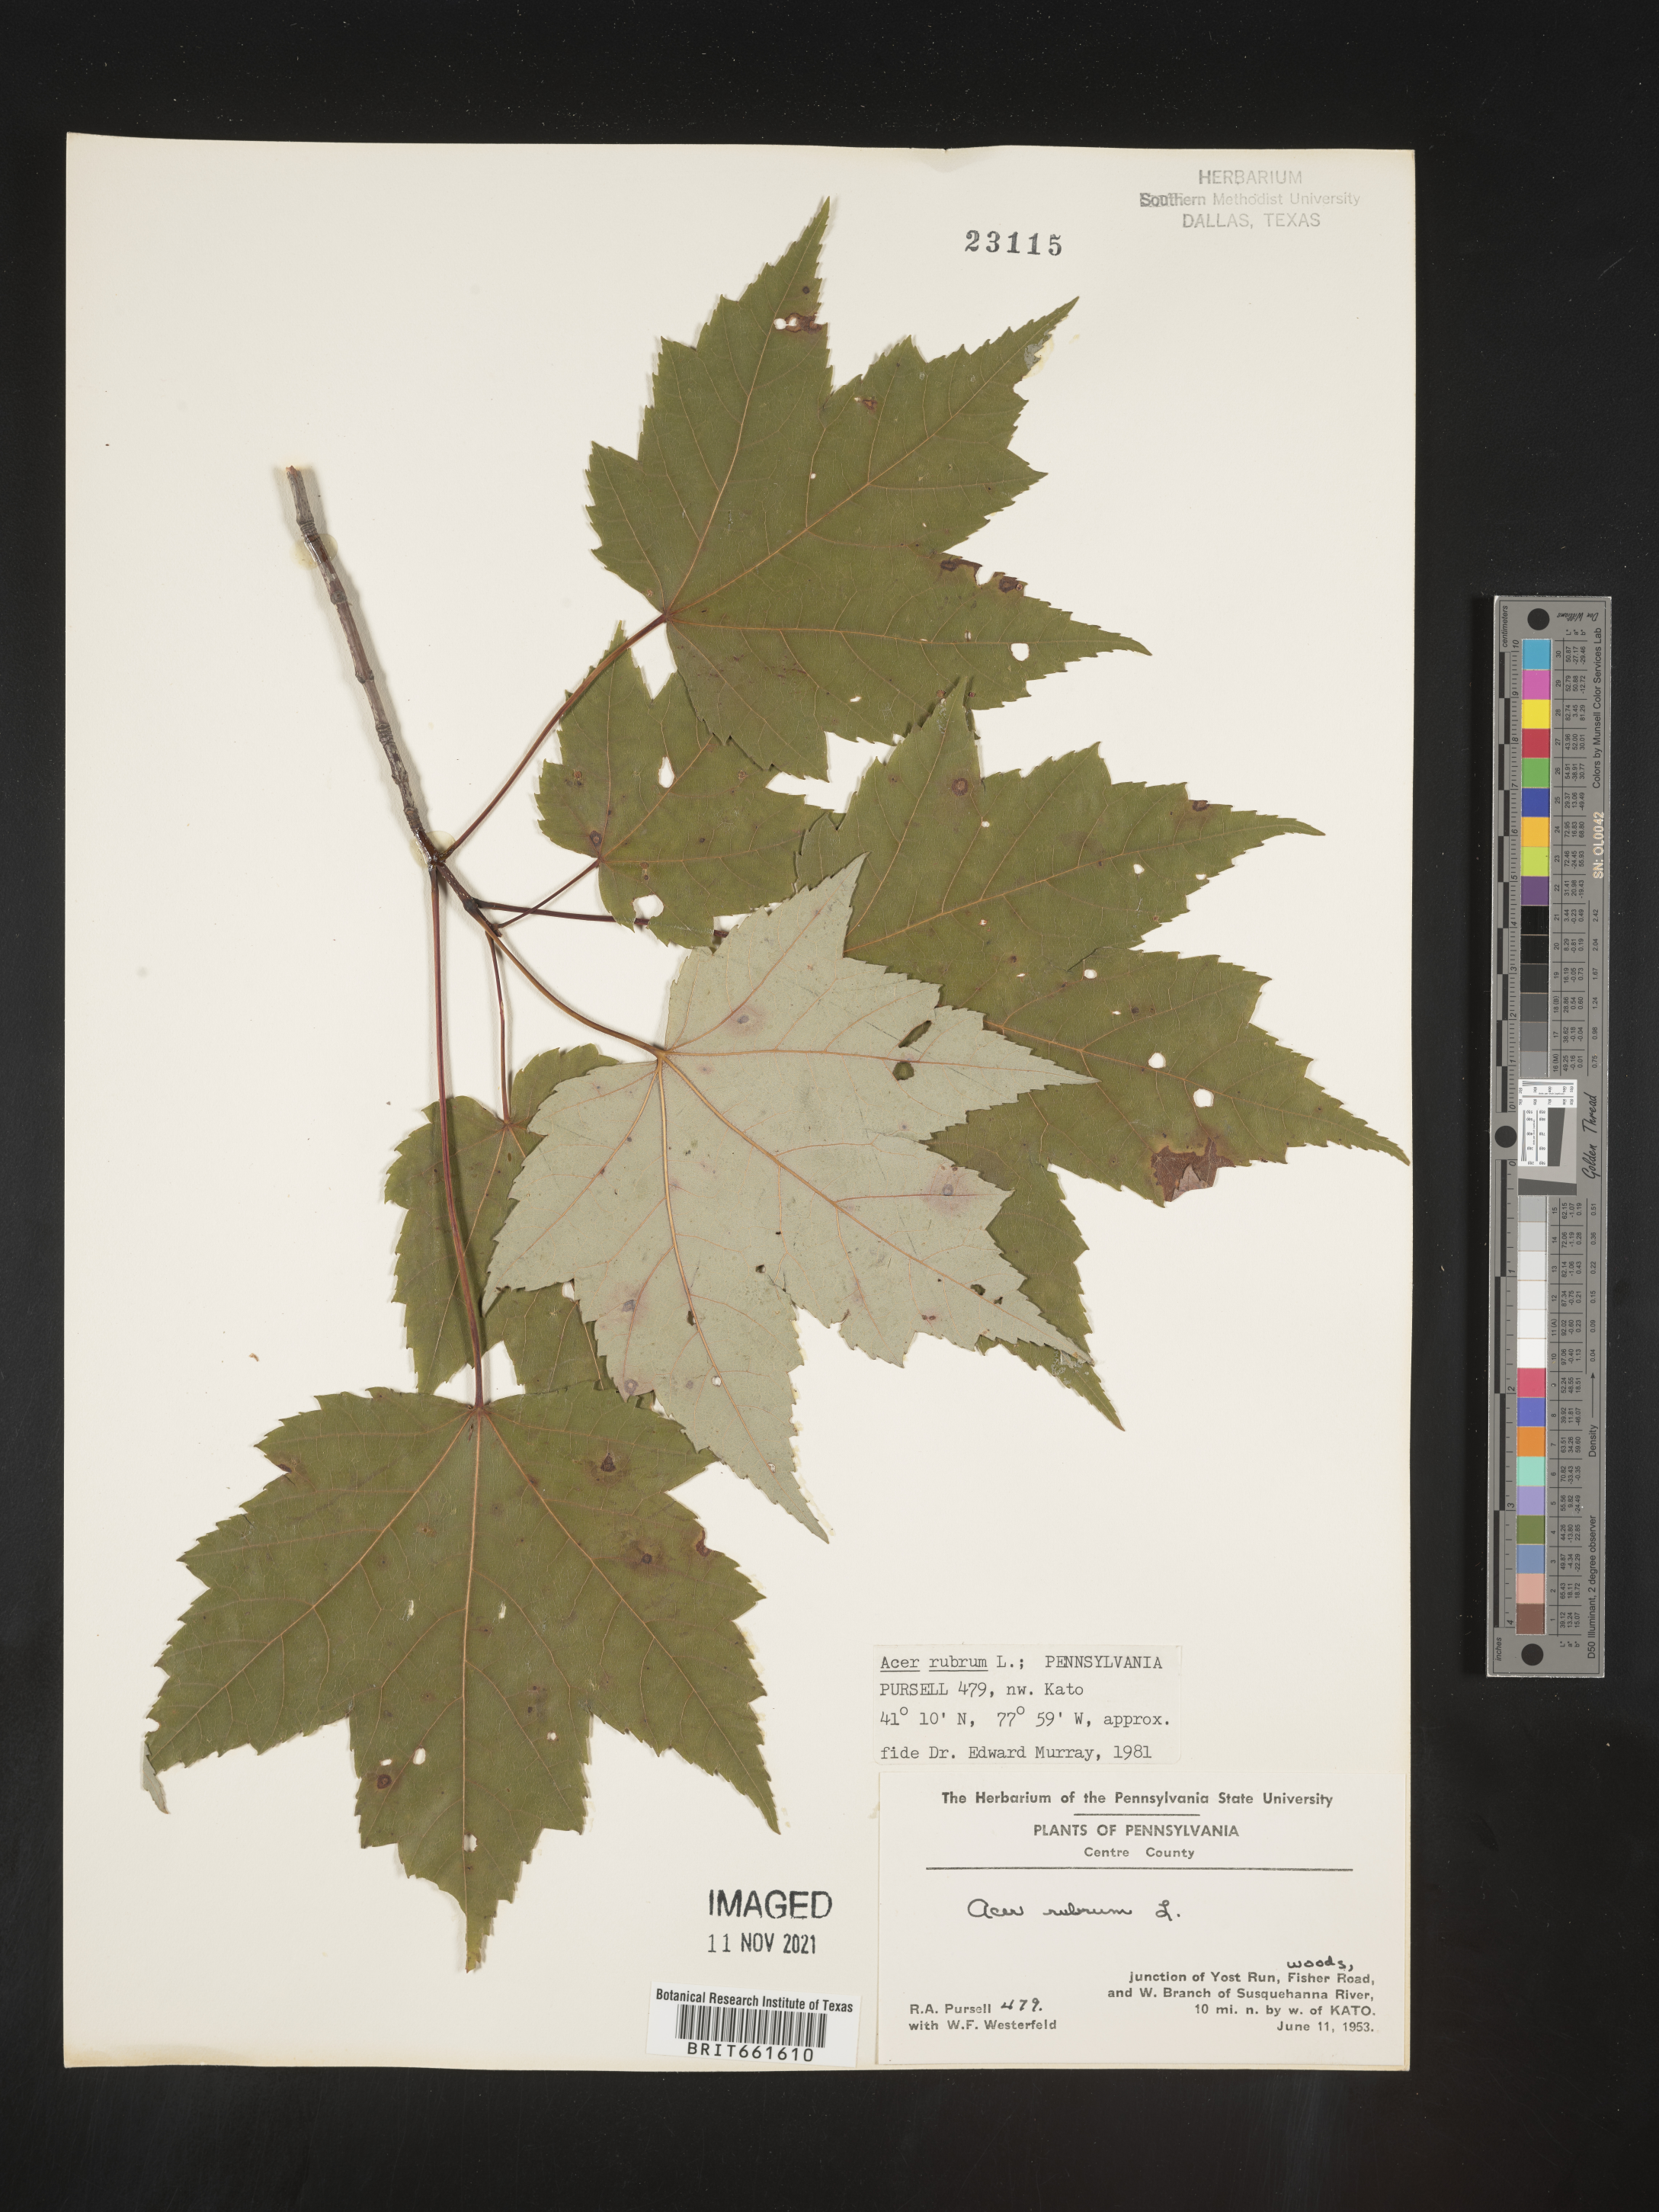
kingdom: Plantae
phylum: Tracheophyta
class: Magnoliopsida
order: Sapindales
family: Sapindaceae
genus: Acer
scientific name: Acer rubrum
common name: Red maple
